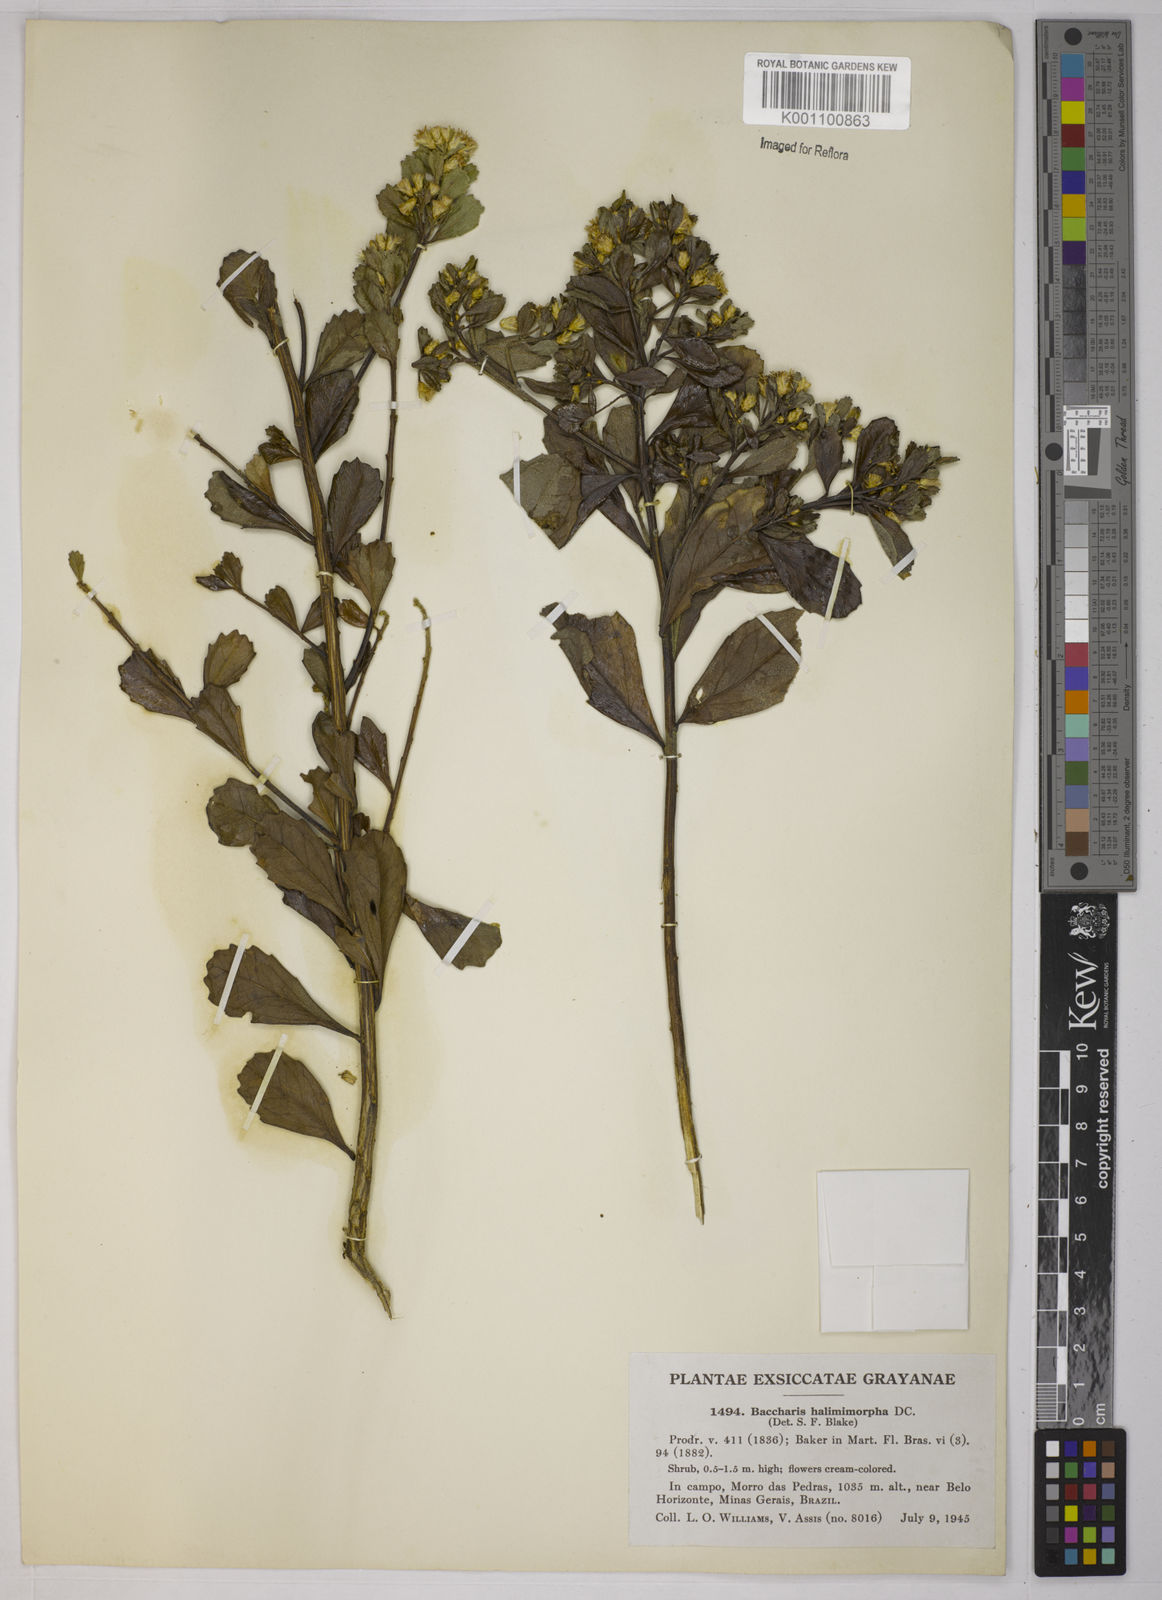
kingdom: Plantae
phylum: Tracheophyta
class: Magnoliopsida
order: Asterales
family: Asteraceae
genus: Baccharis
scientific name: Baccharis
